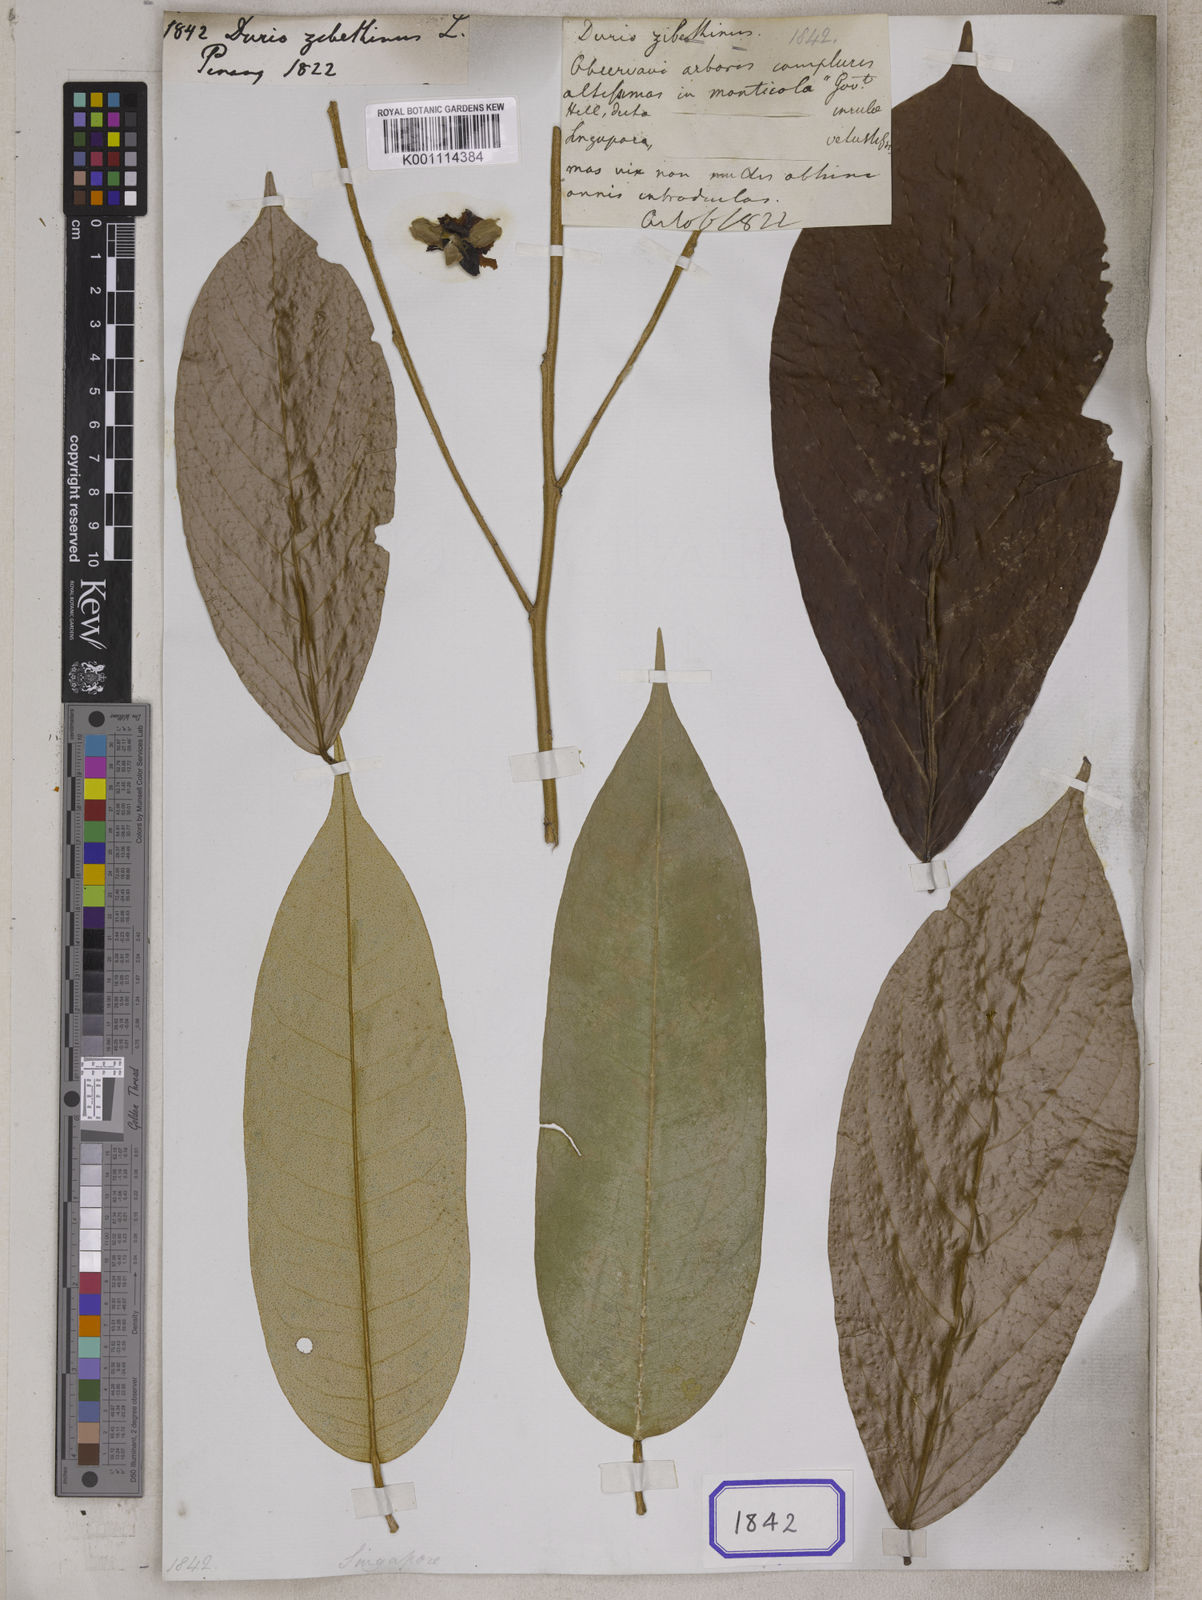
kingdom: Plantae
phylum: Tracheophyta
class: Magnoliopsida
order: Malvales
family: Malvaceae
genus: Durio
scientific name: Durio zibethinus
